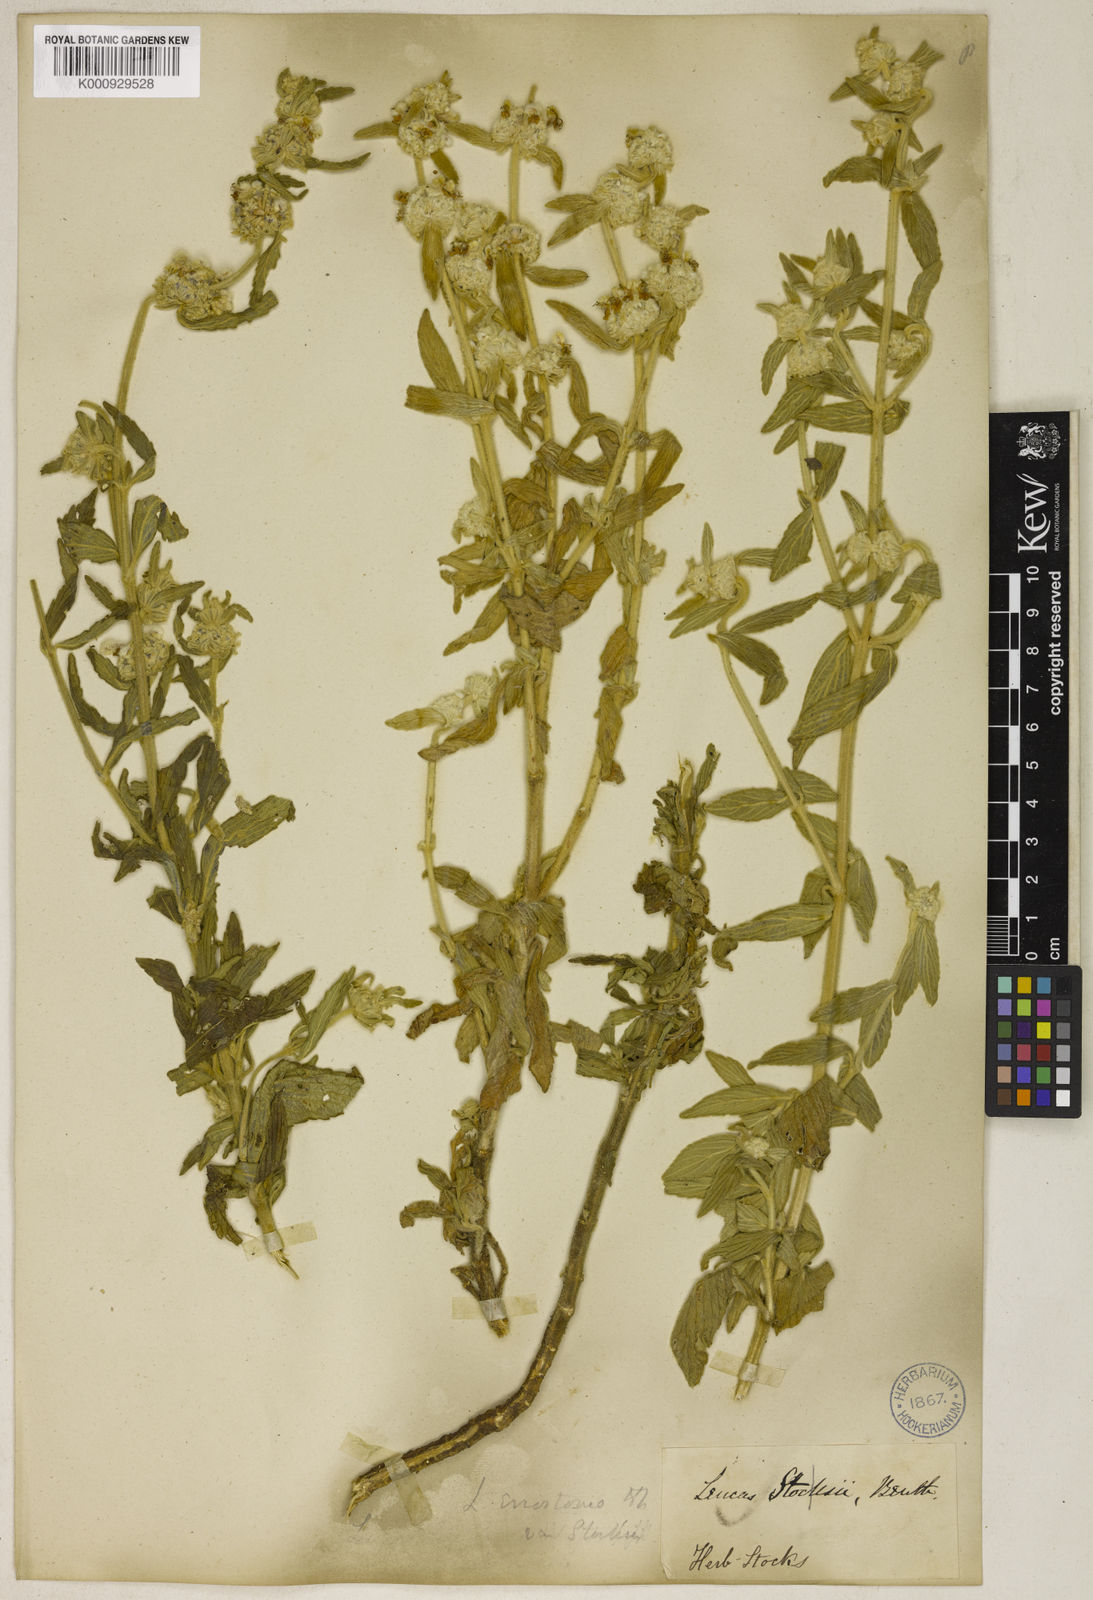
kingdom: Plantae
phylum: Tracheophyta
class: Magnoliopsida
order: Lamiales
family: Lamiaceae
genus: Leucas
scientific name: Leucas eriostoma
